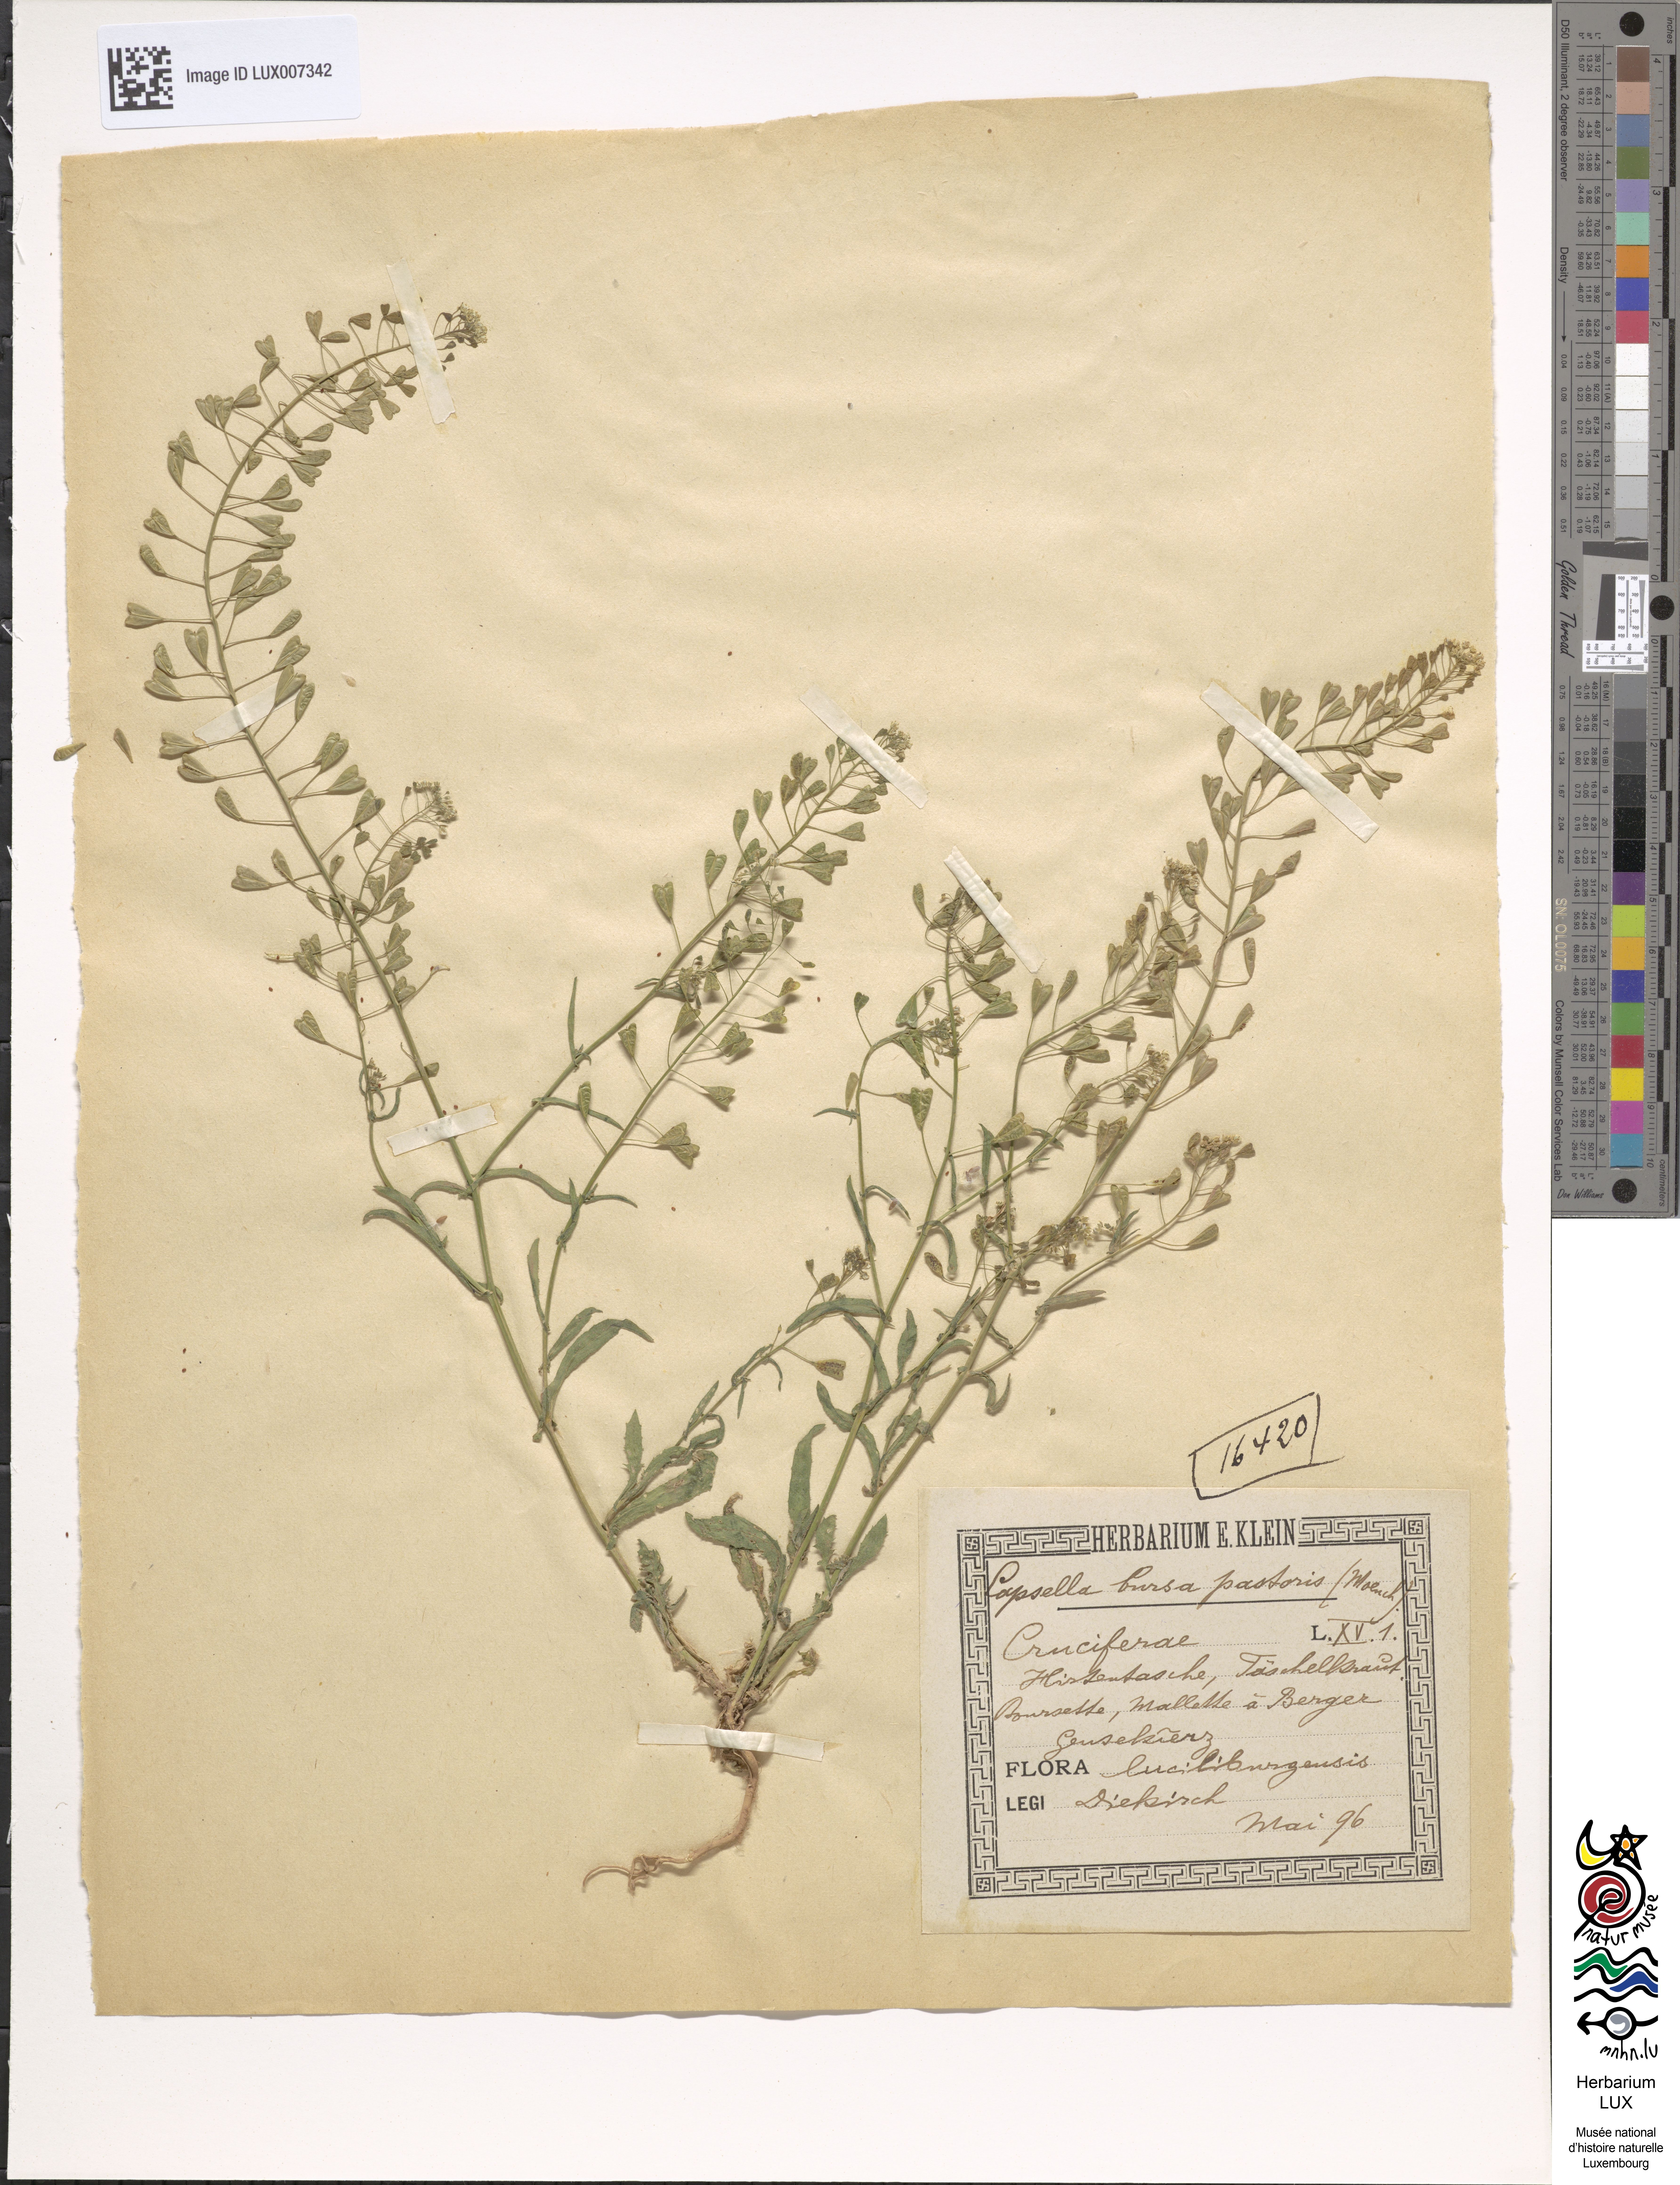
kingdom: Plantae
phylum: Tracheophyta
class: Magnoliopsida
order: Brassicales
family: Brassicaceae
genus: Capsella
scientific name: Capsella bursa-pastoris
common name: Shepherd's purse
